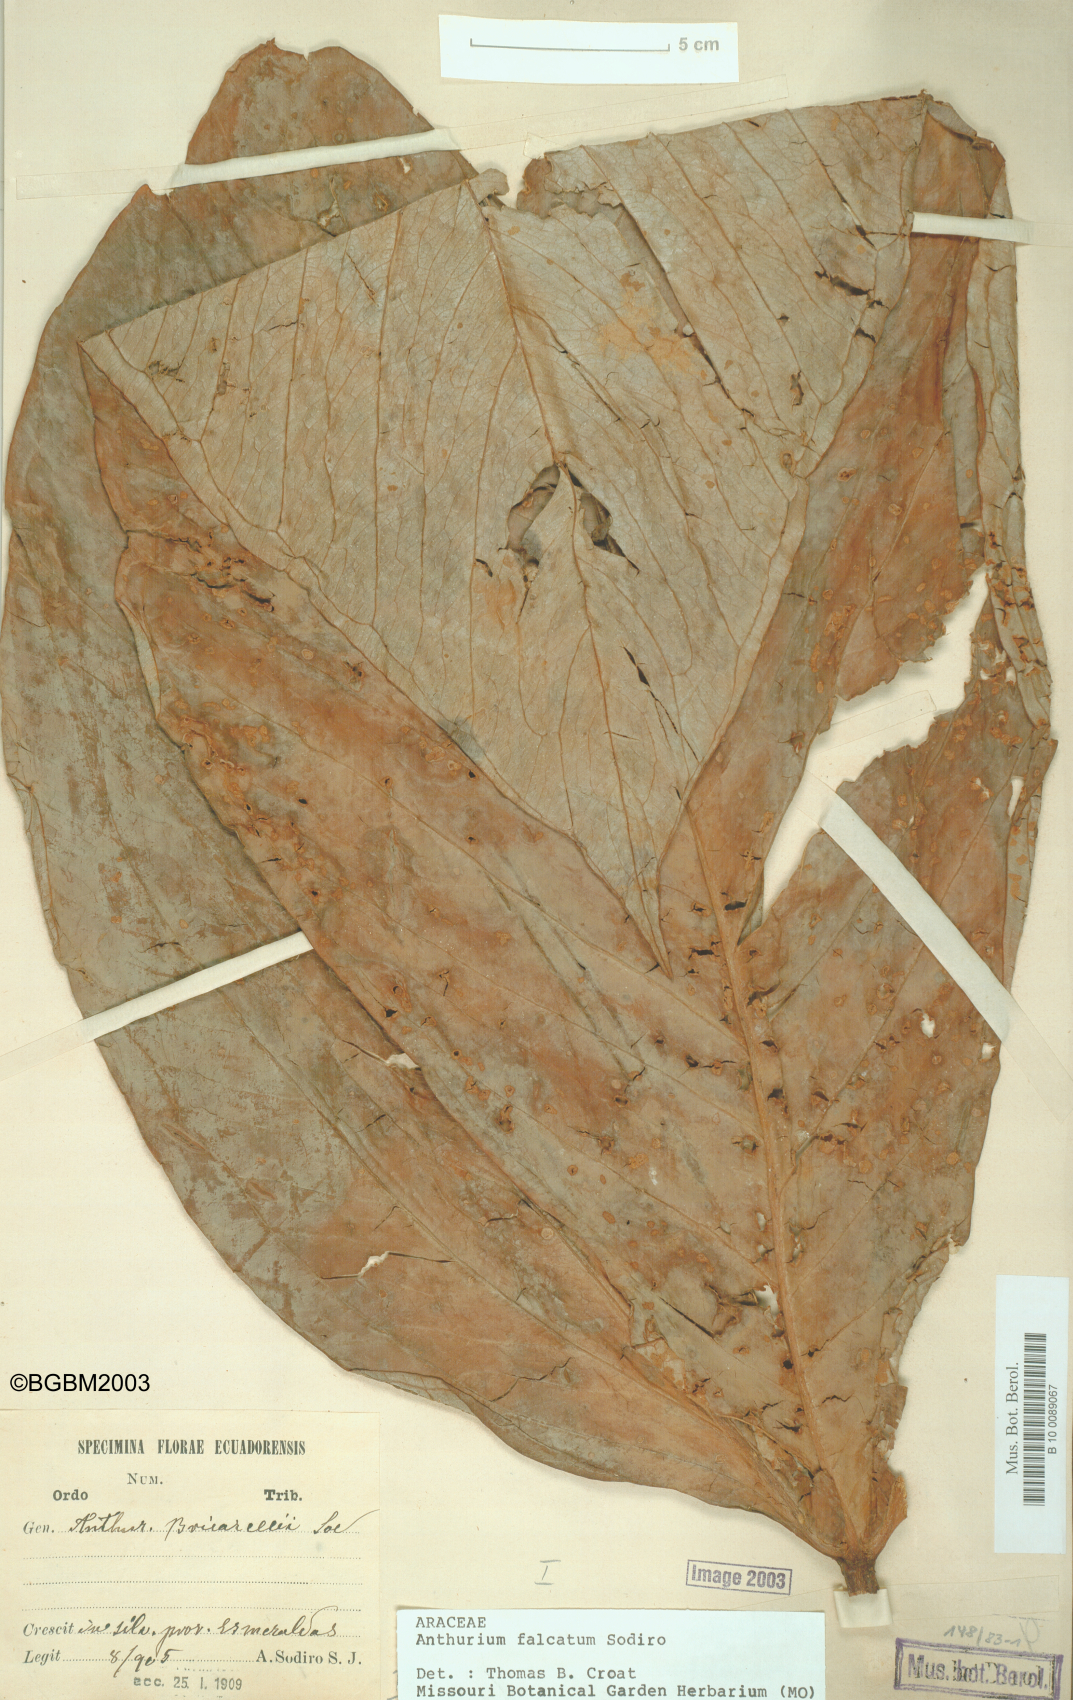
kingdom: Plantae
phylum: Tracheophyta
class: Liliopsida
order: Alismatales
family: Araceae
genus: Anthurium
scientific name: Anthurium rimbachii
